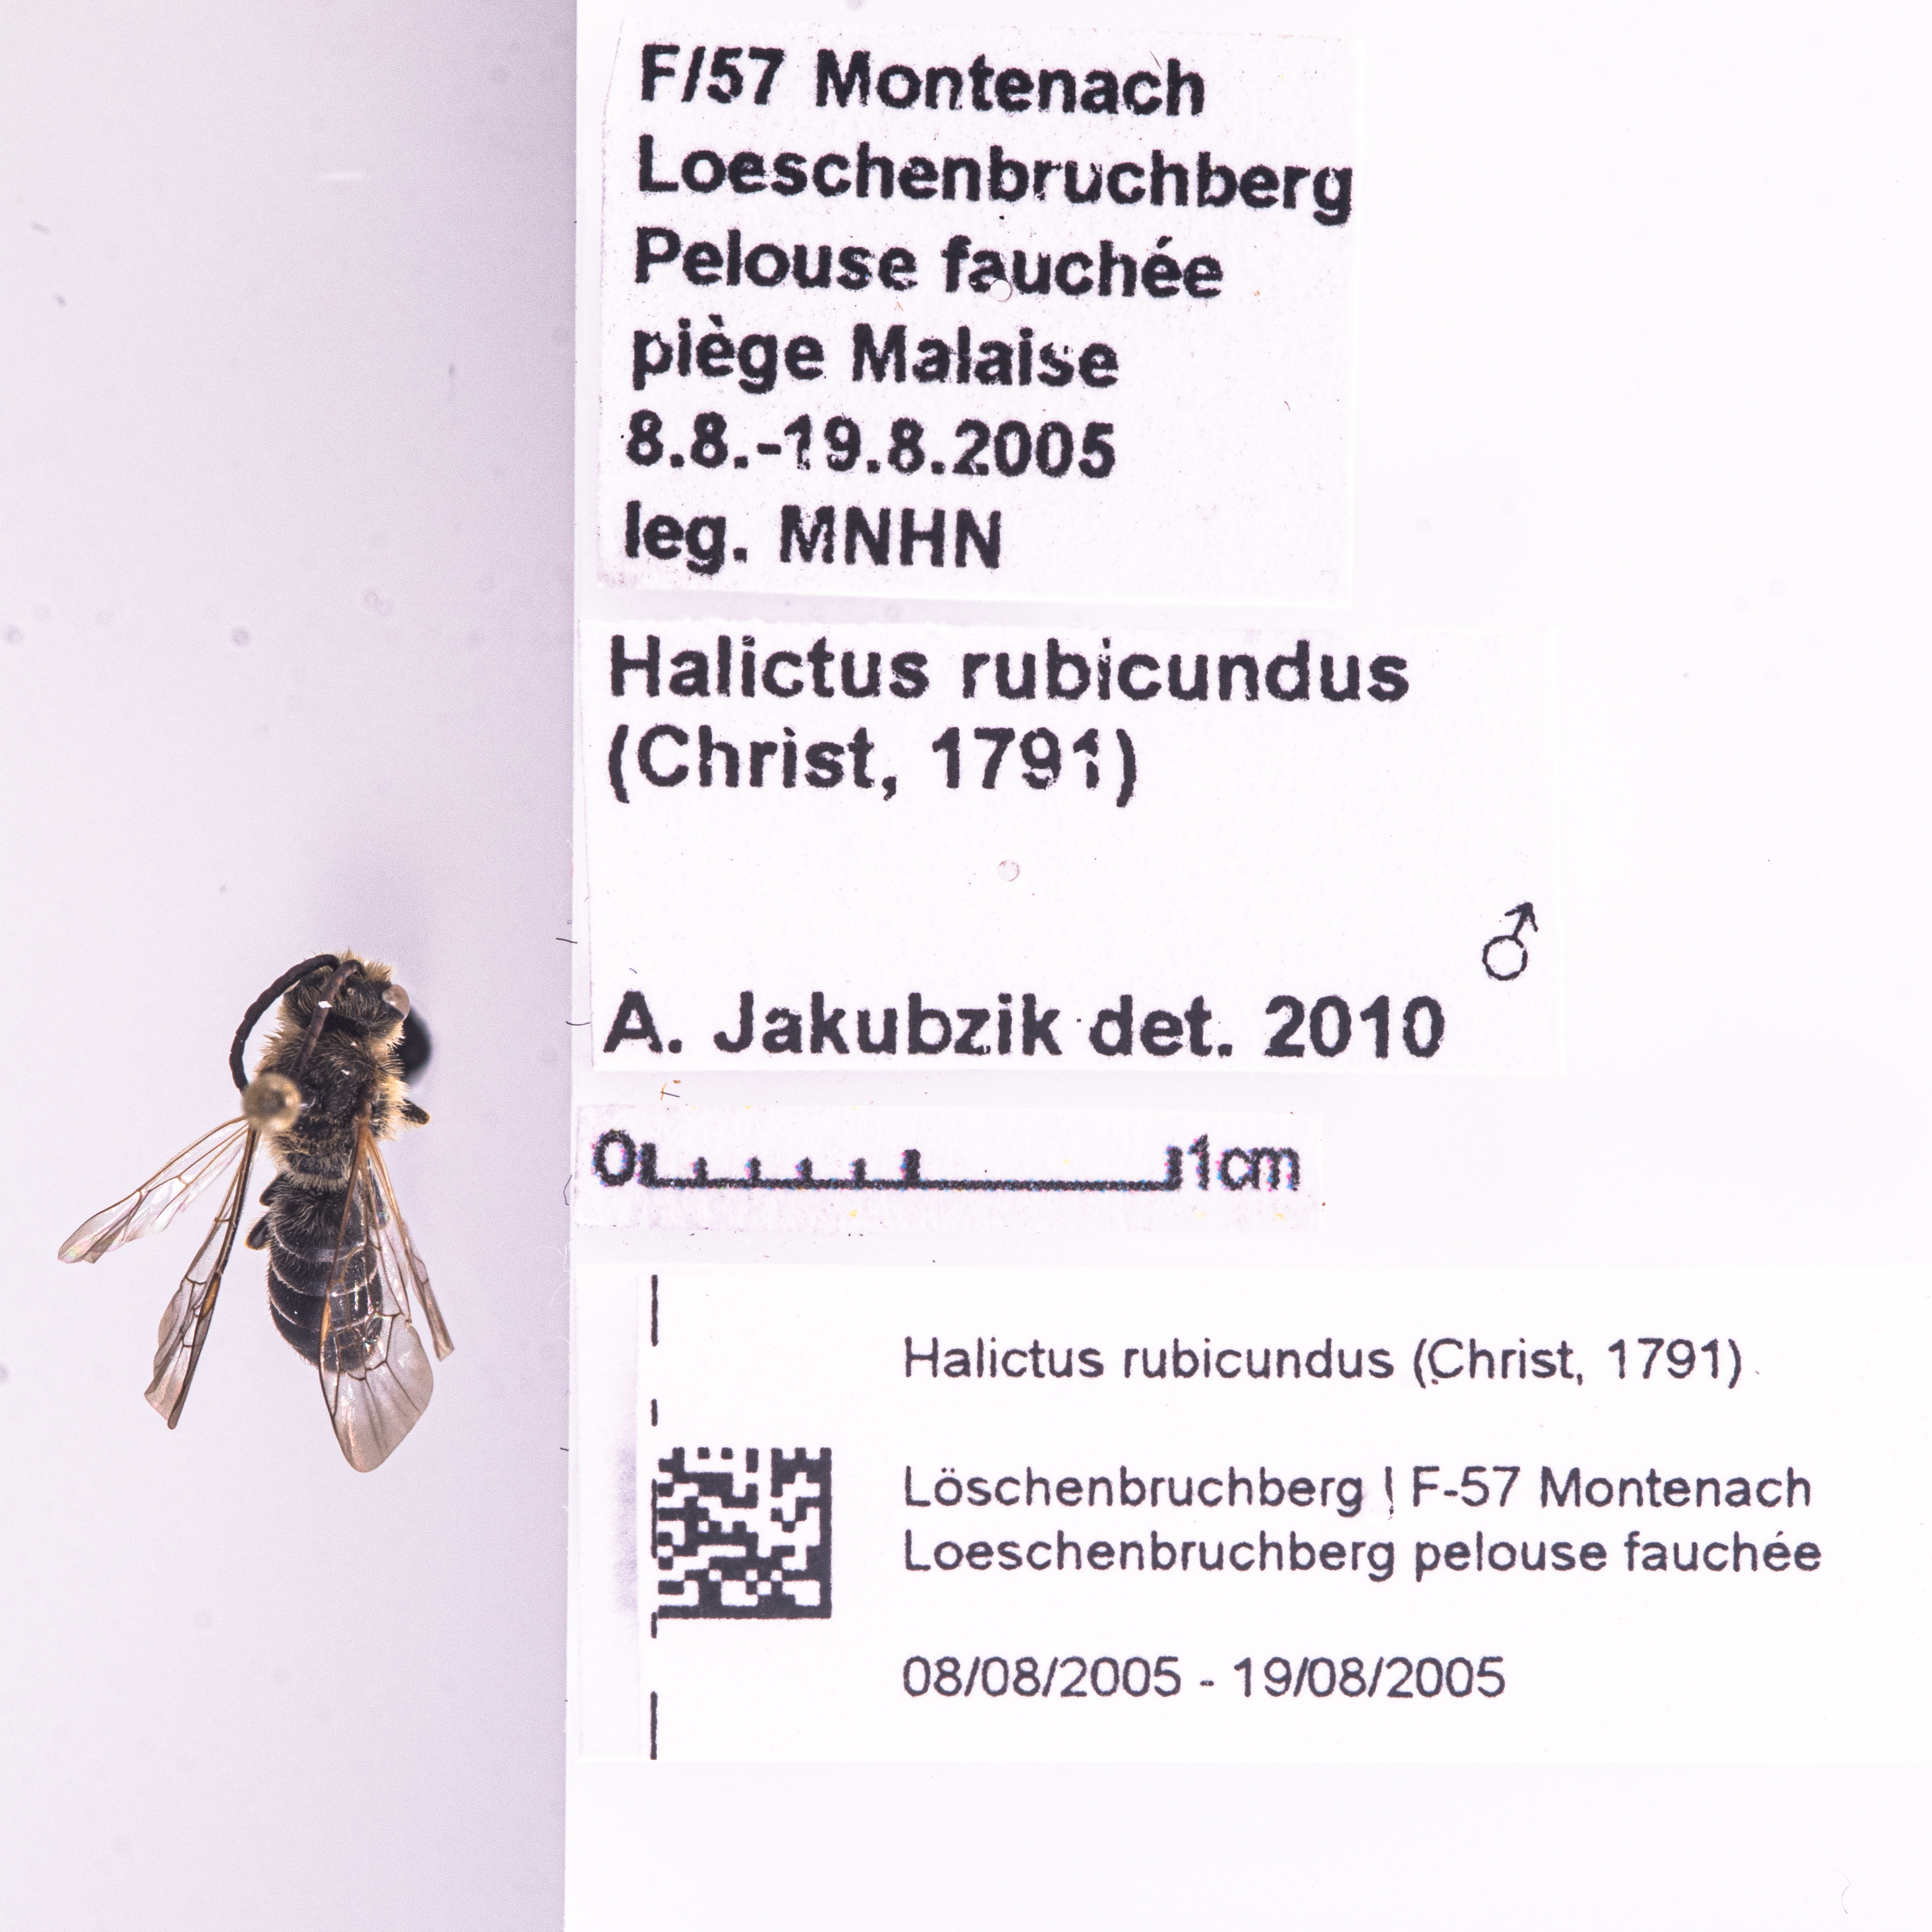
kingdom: Animalia
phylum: Arthropoda
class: Insecta
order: Hymenoptera
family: Halictidae
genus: Halictus
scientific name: Halictus rubicundus
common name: Orange-legged furrow bee
